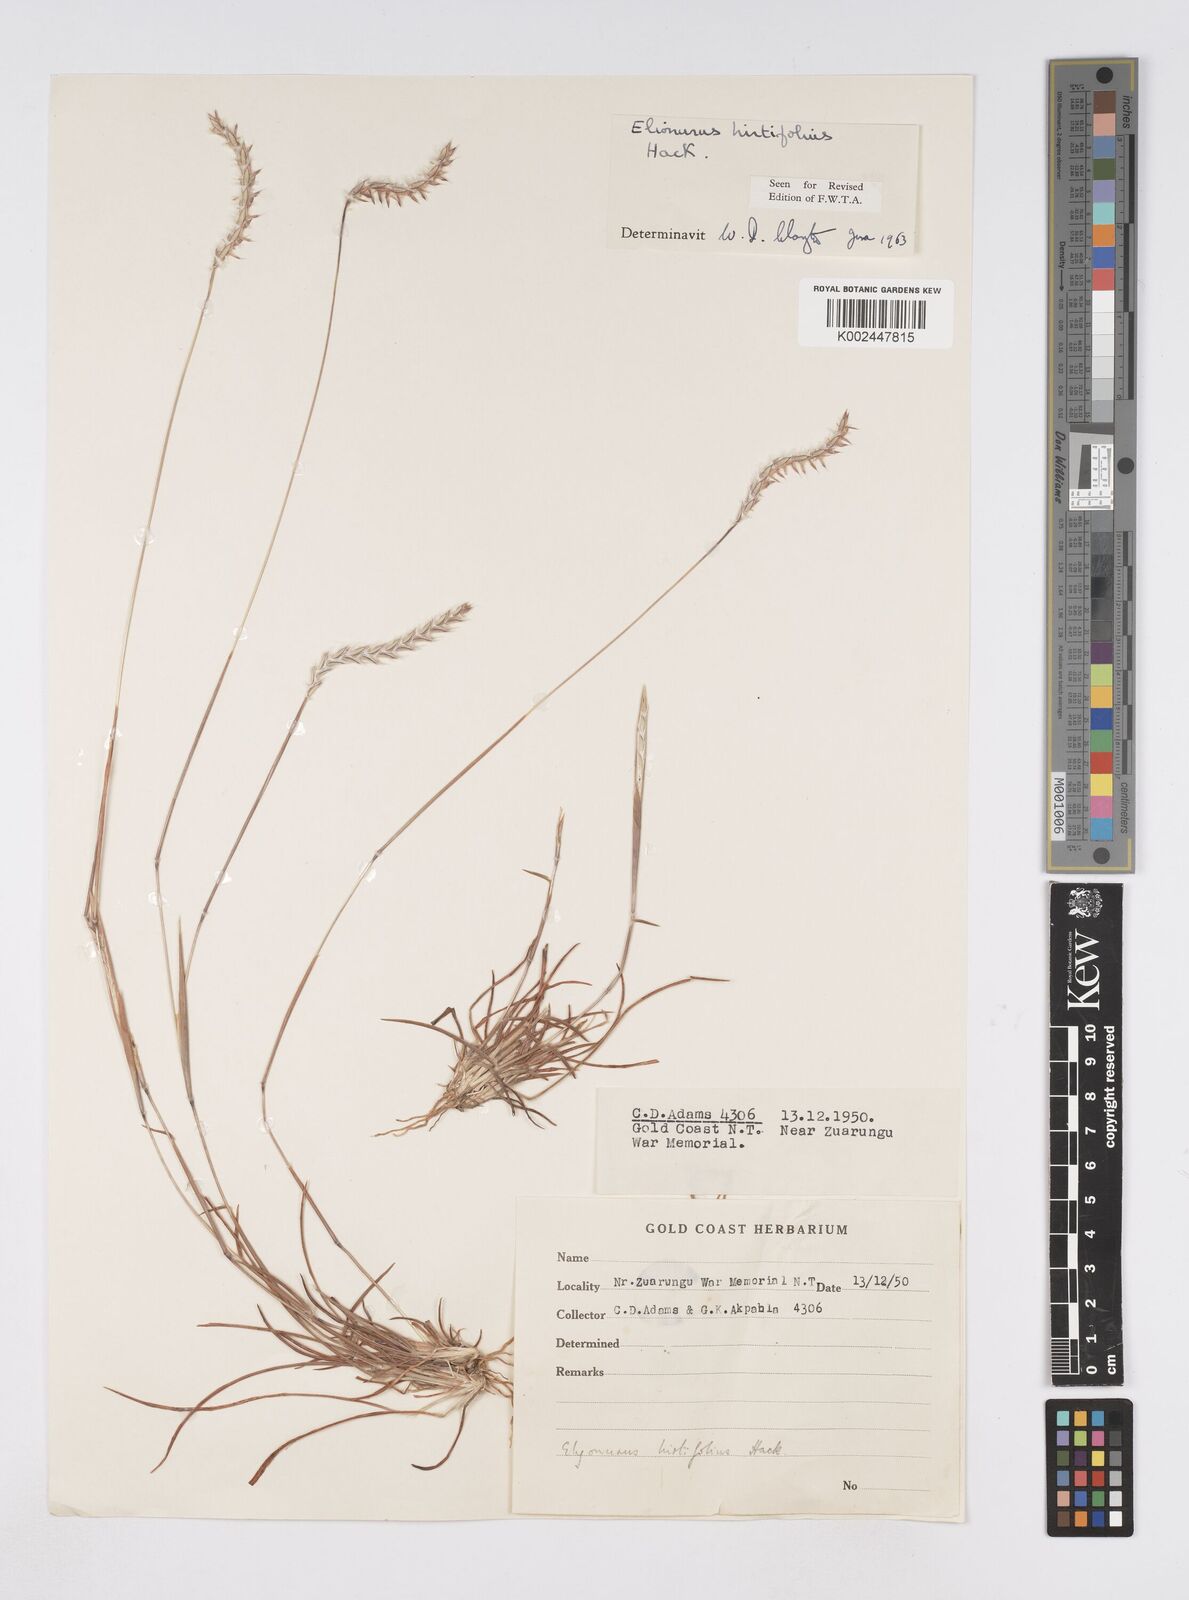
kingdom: Plantae
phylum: Tracheophyta
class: Liliopsida
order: Poales
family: Poaceae
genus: Elionurus
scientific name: Elionurus hirtifolius
